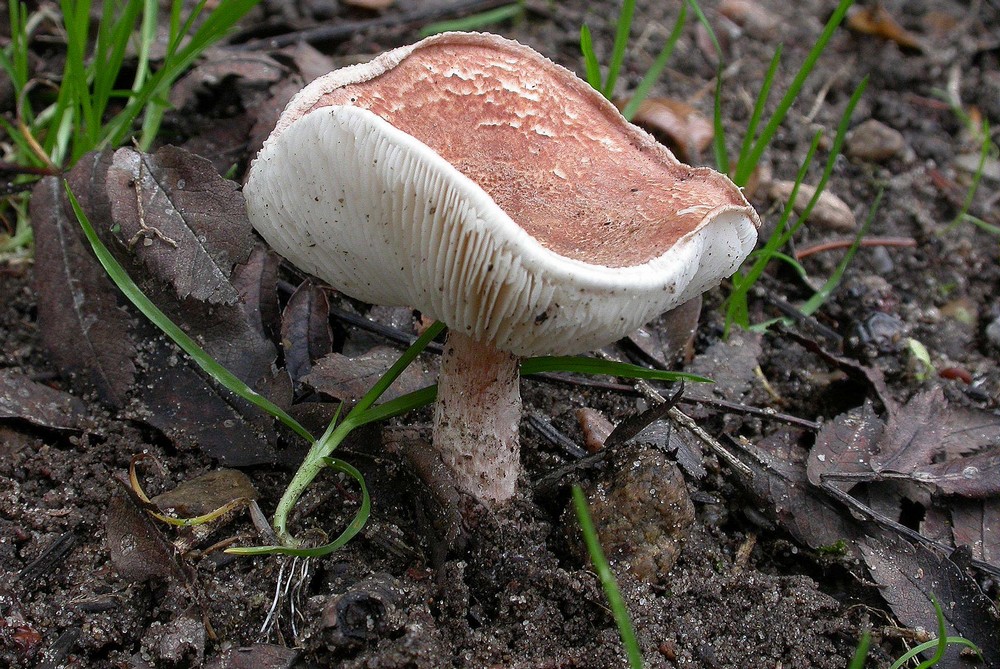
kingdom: Fungi
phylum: Basidiomycota
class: Agaricomycetes
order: Agaricales
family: Agaricaceae
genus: Lepiota
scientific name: Lepiota subincarnata
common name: kødfarvet parasolhat
